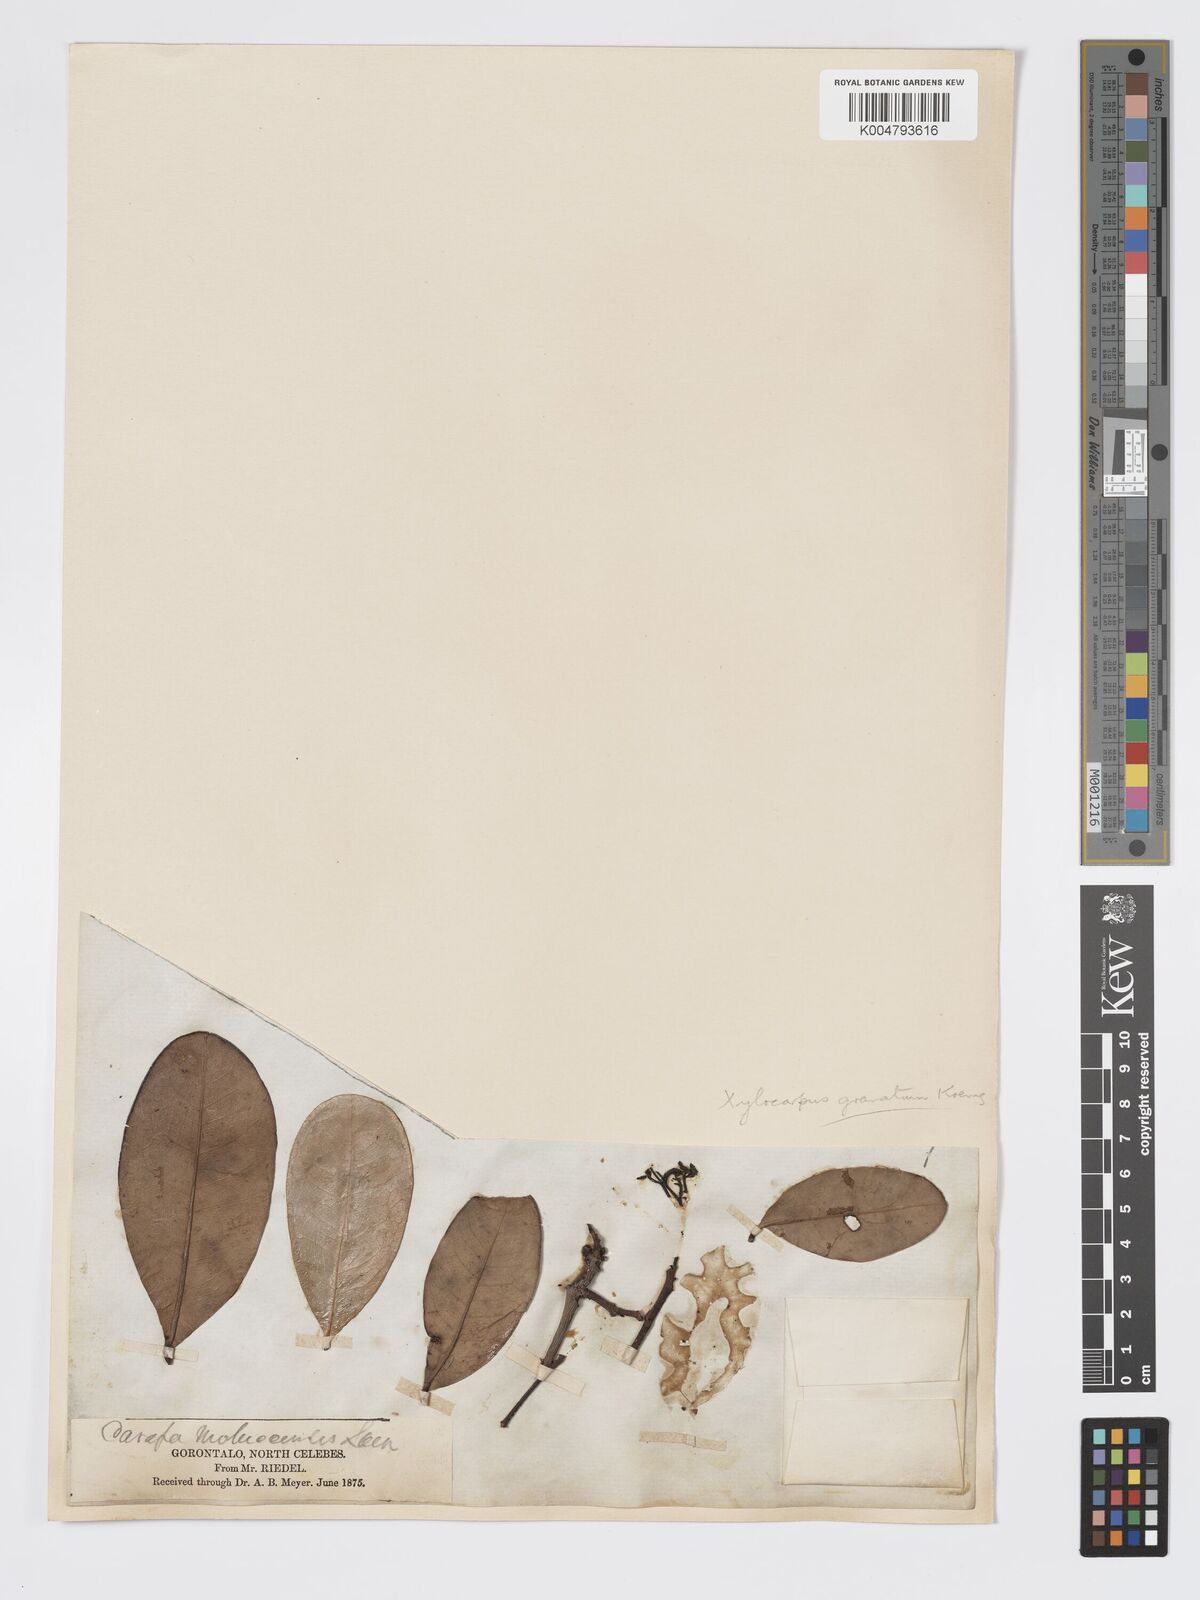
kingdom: Plantae
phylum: Tracheophyta
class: Magnoliopsida
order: Sapindales
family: Meliaceae
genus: Xylocarpus
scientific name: Xylocarpus granatum
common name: Apple mangrove
